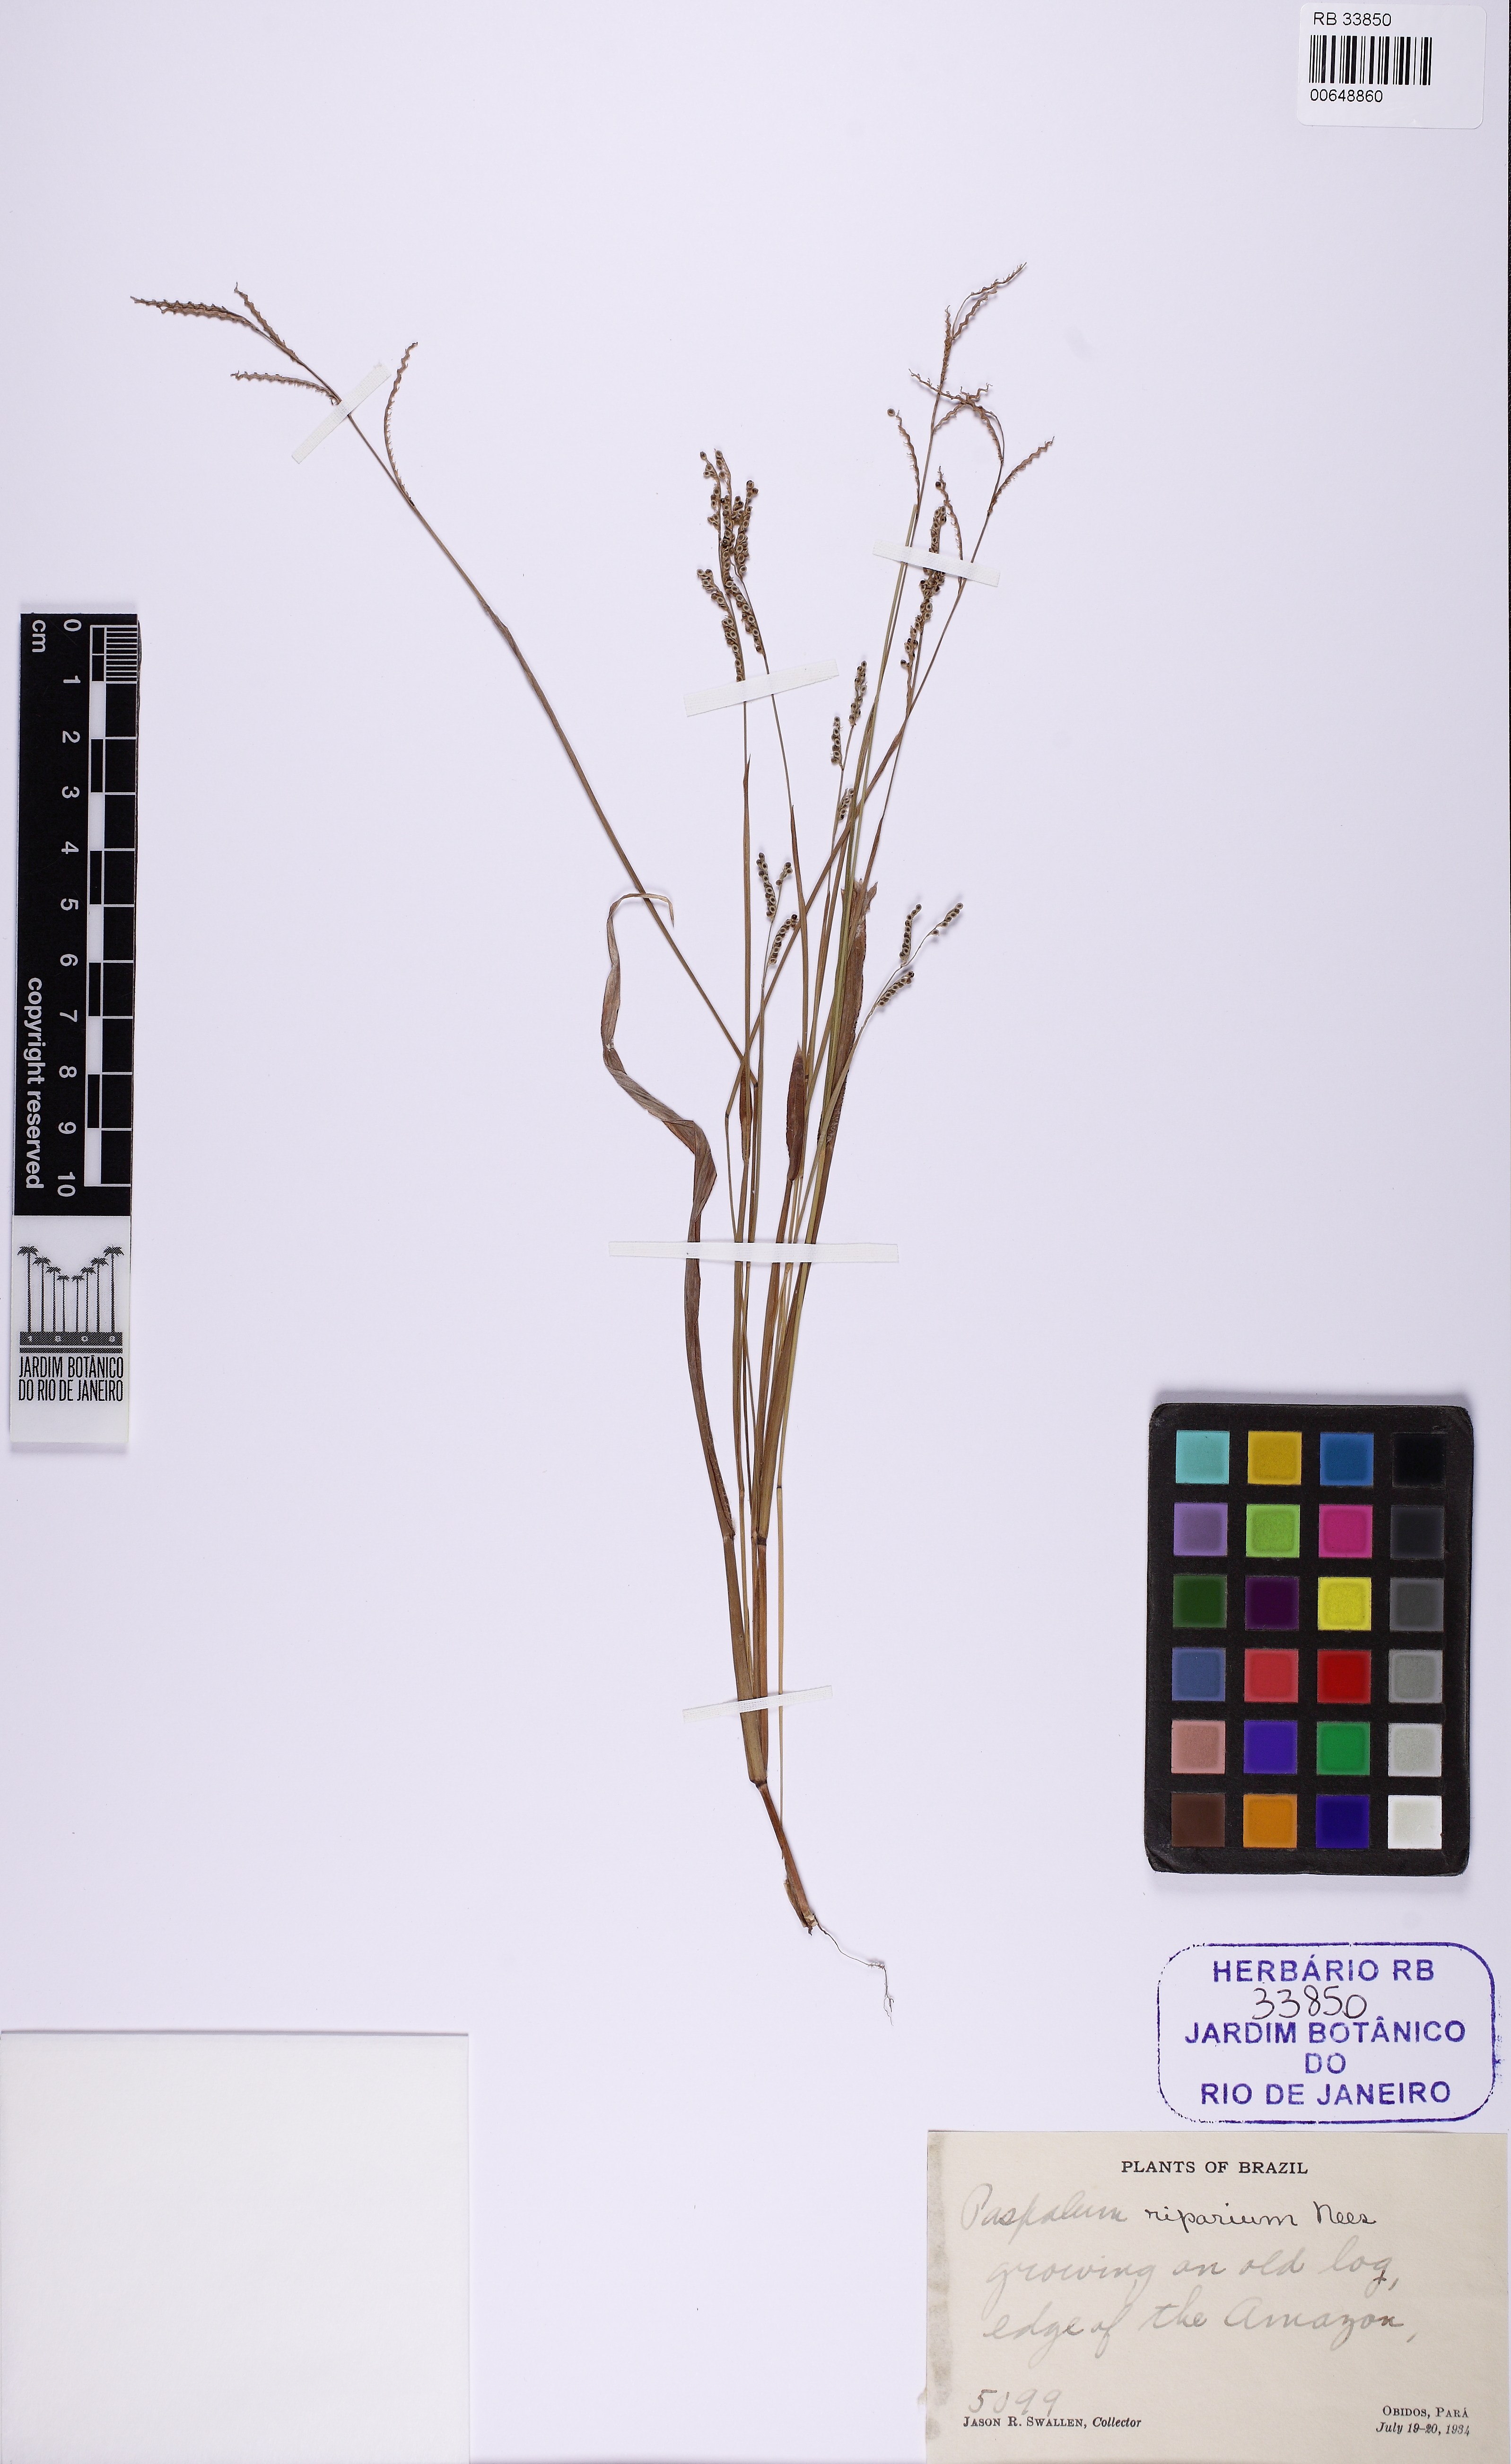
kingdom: Plantae
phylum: Tracheophyta
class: Liliopsida
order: Poales
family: Poaceae
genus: Paspalum
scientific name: Paspalum riparium
